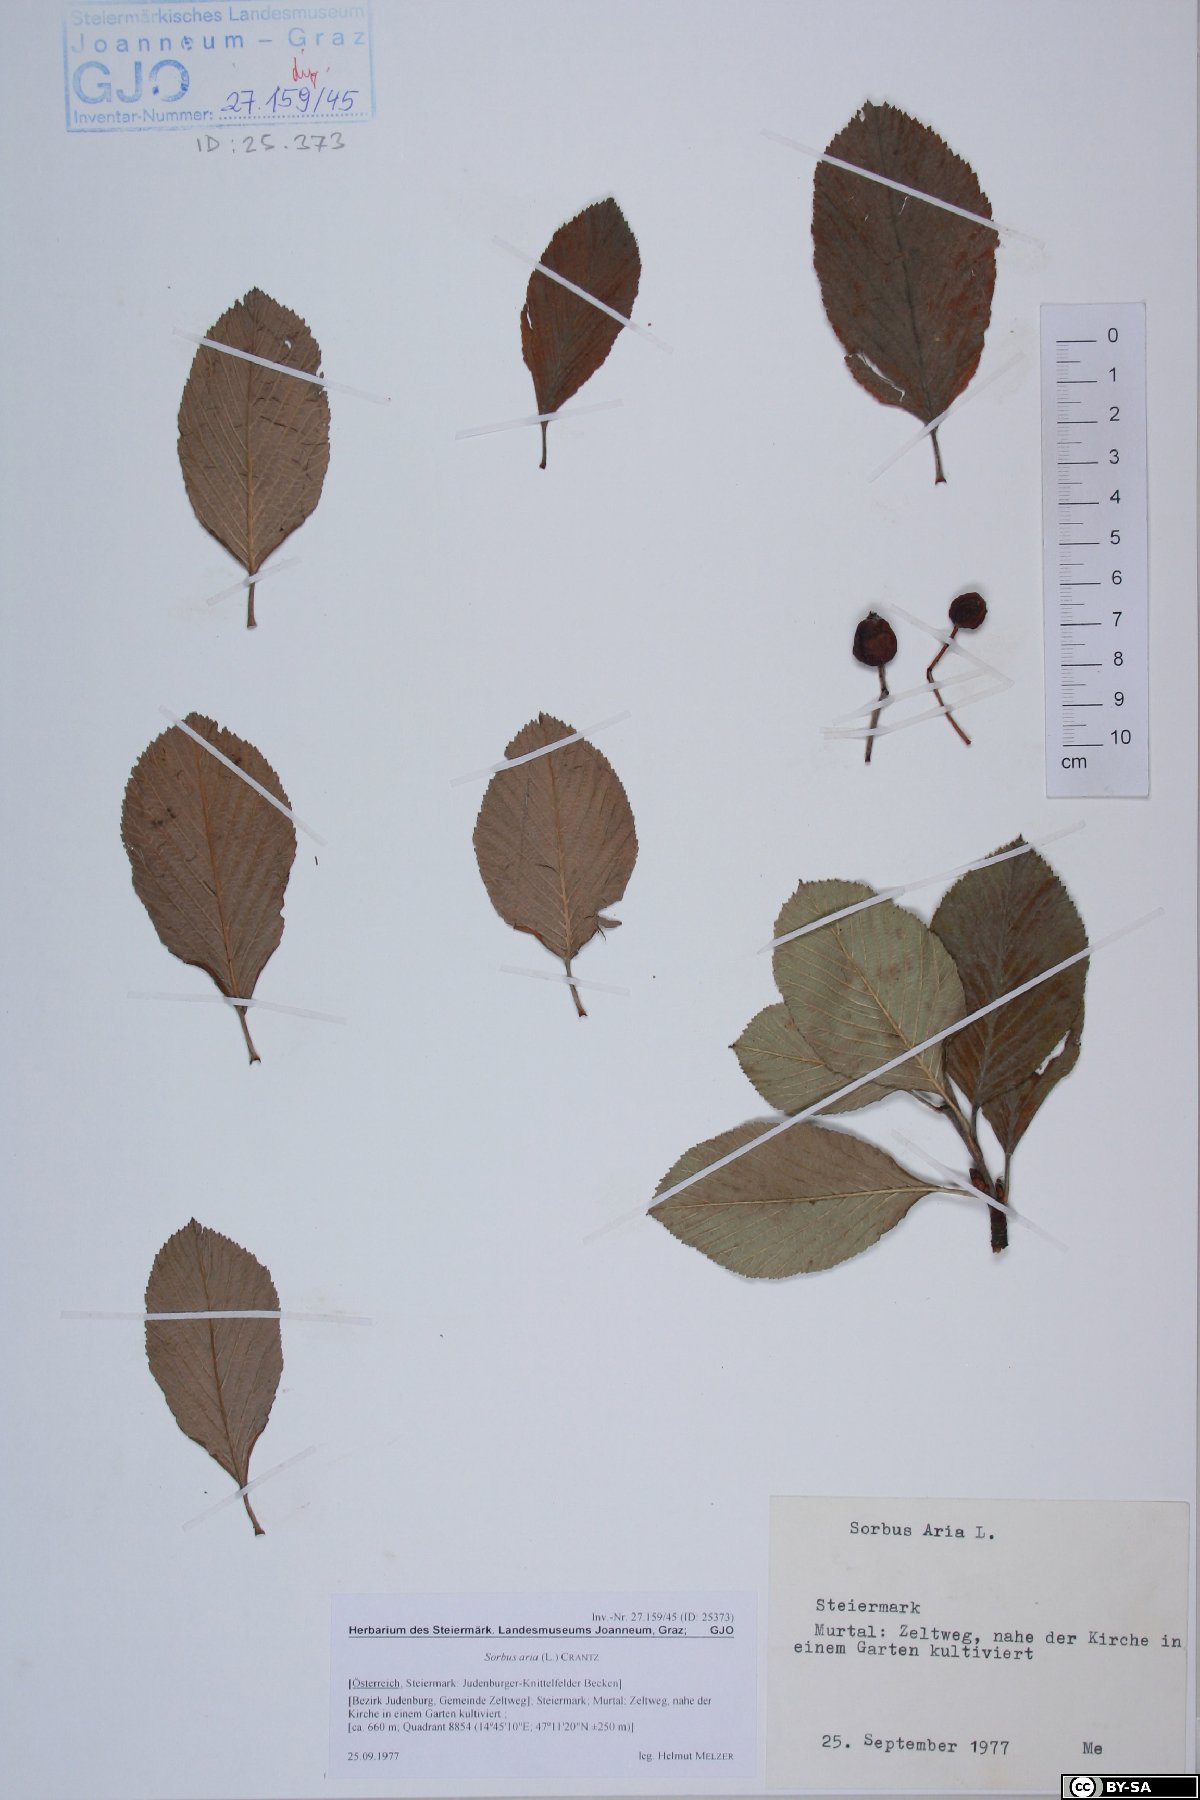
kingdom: Plantae
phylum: Tracheophyta
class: Magnoliopsida
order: Rosales
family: Rosaceae
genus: Aria
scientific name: Aria edulis
